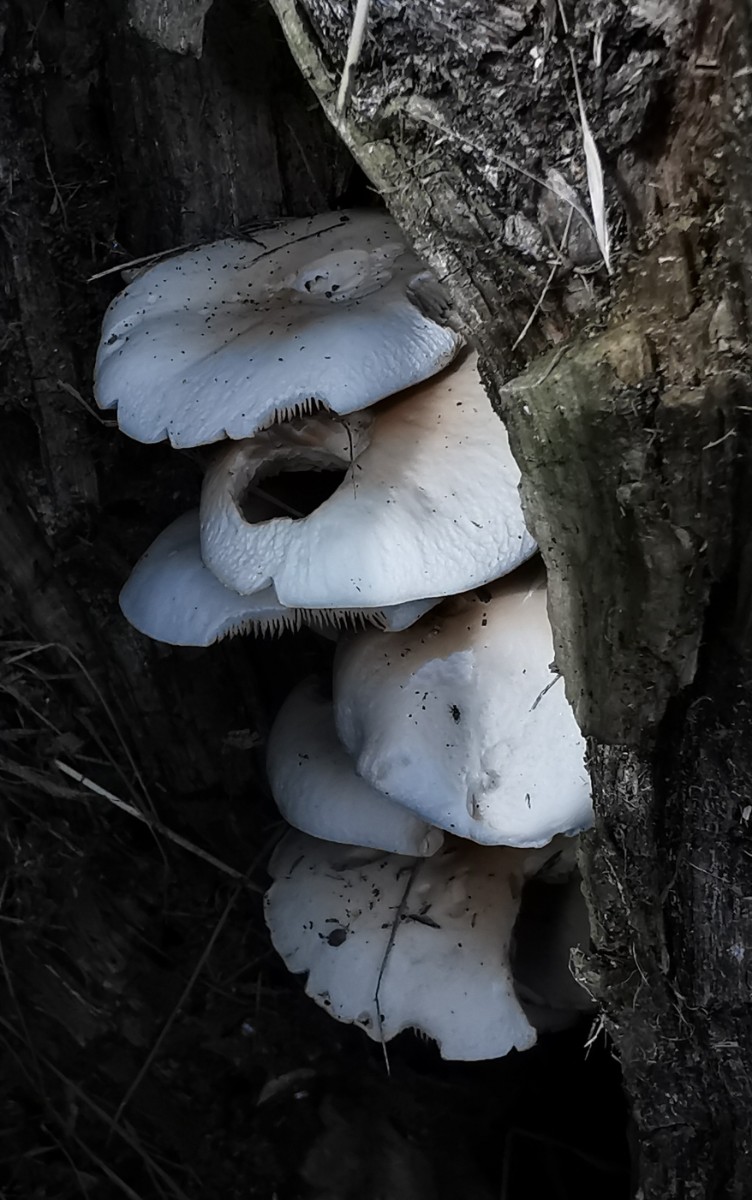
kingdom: Fungi
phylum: Basidiomycota
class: Agaricomycetes
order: Agaricales
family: Tubariaceae
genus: Cyclocybe
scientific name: Cyclocybe cylindracea
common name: poppel-agerhat
